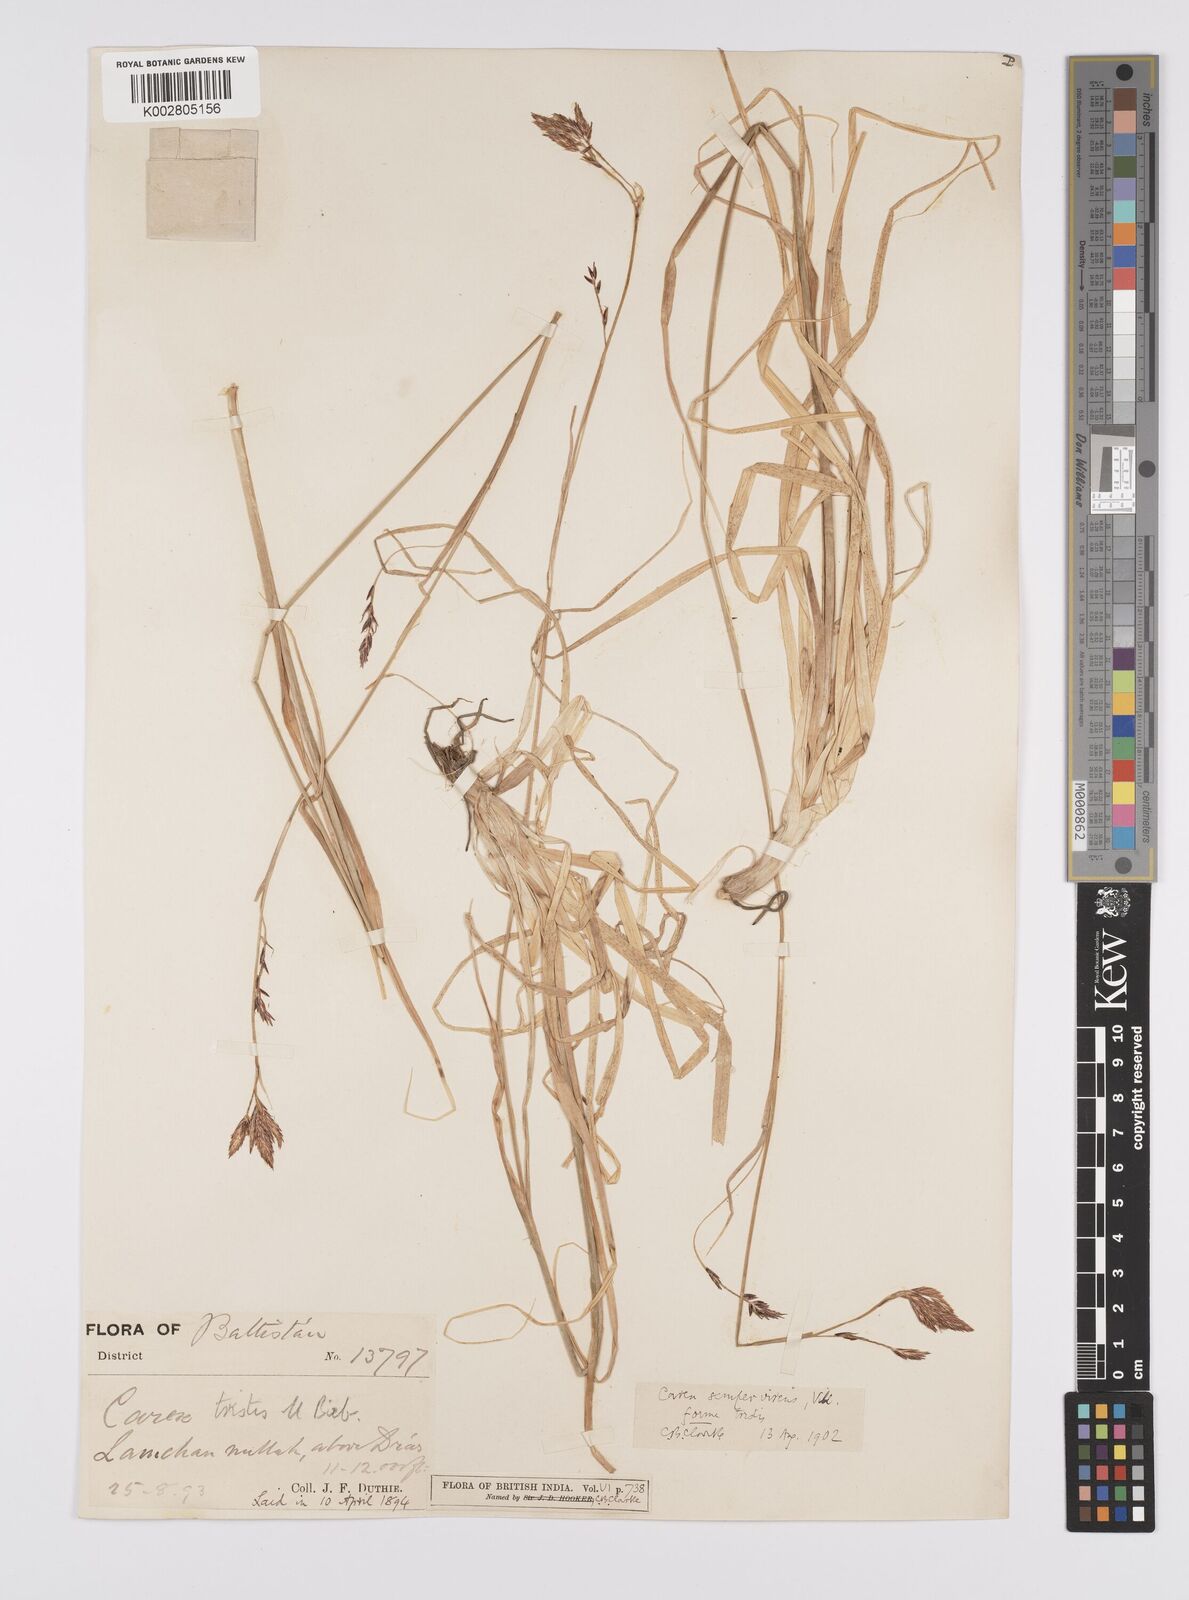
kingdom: Plantae
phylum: Tracheophyta
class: Liliopsida
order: Poales
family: Cyperaceae
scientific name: Cyperaceae
